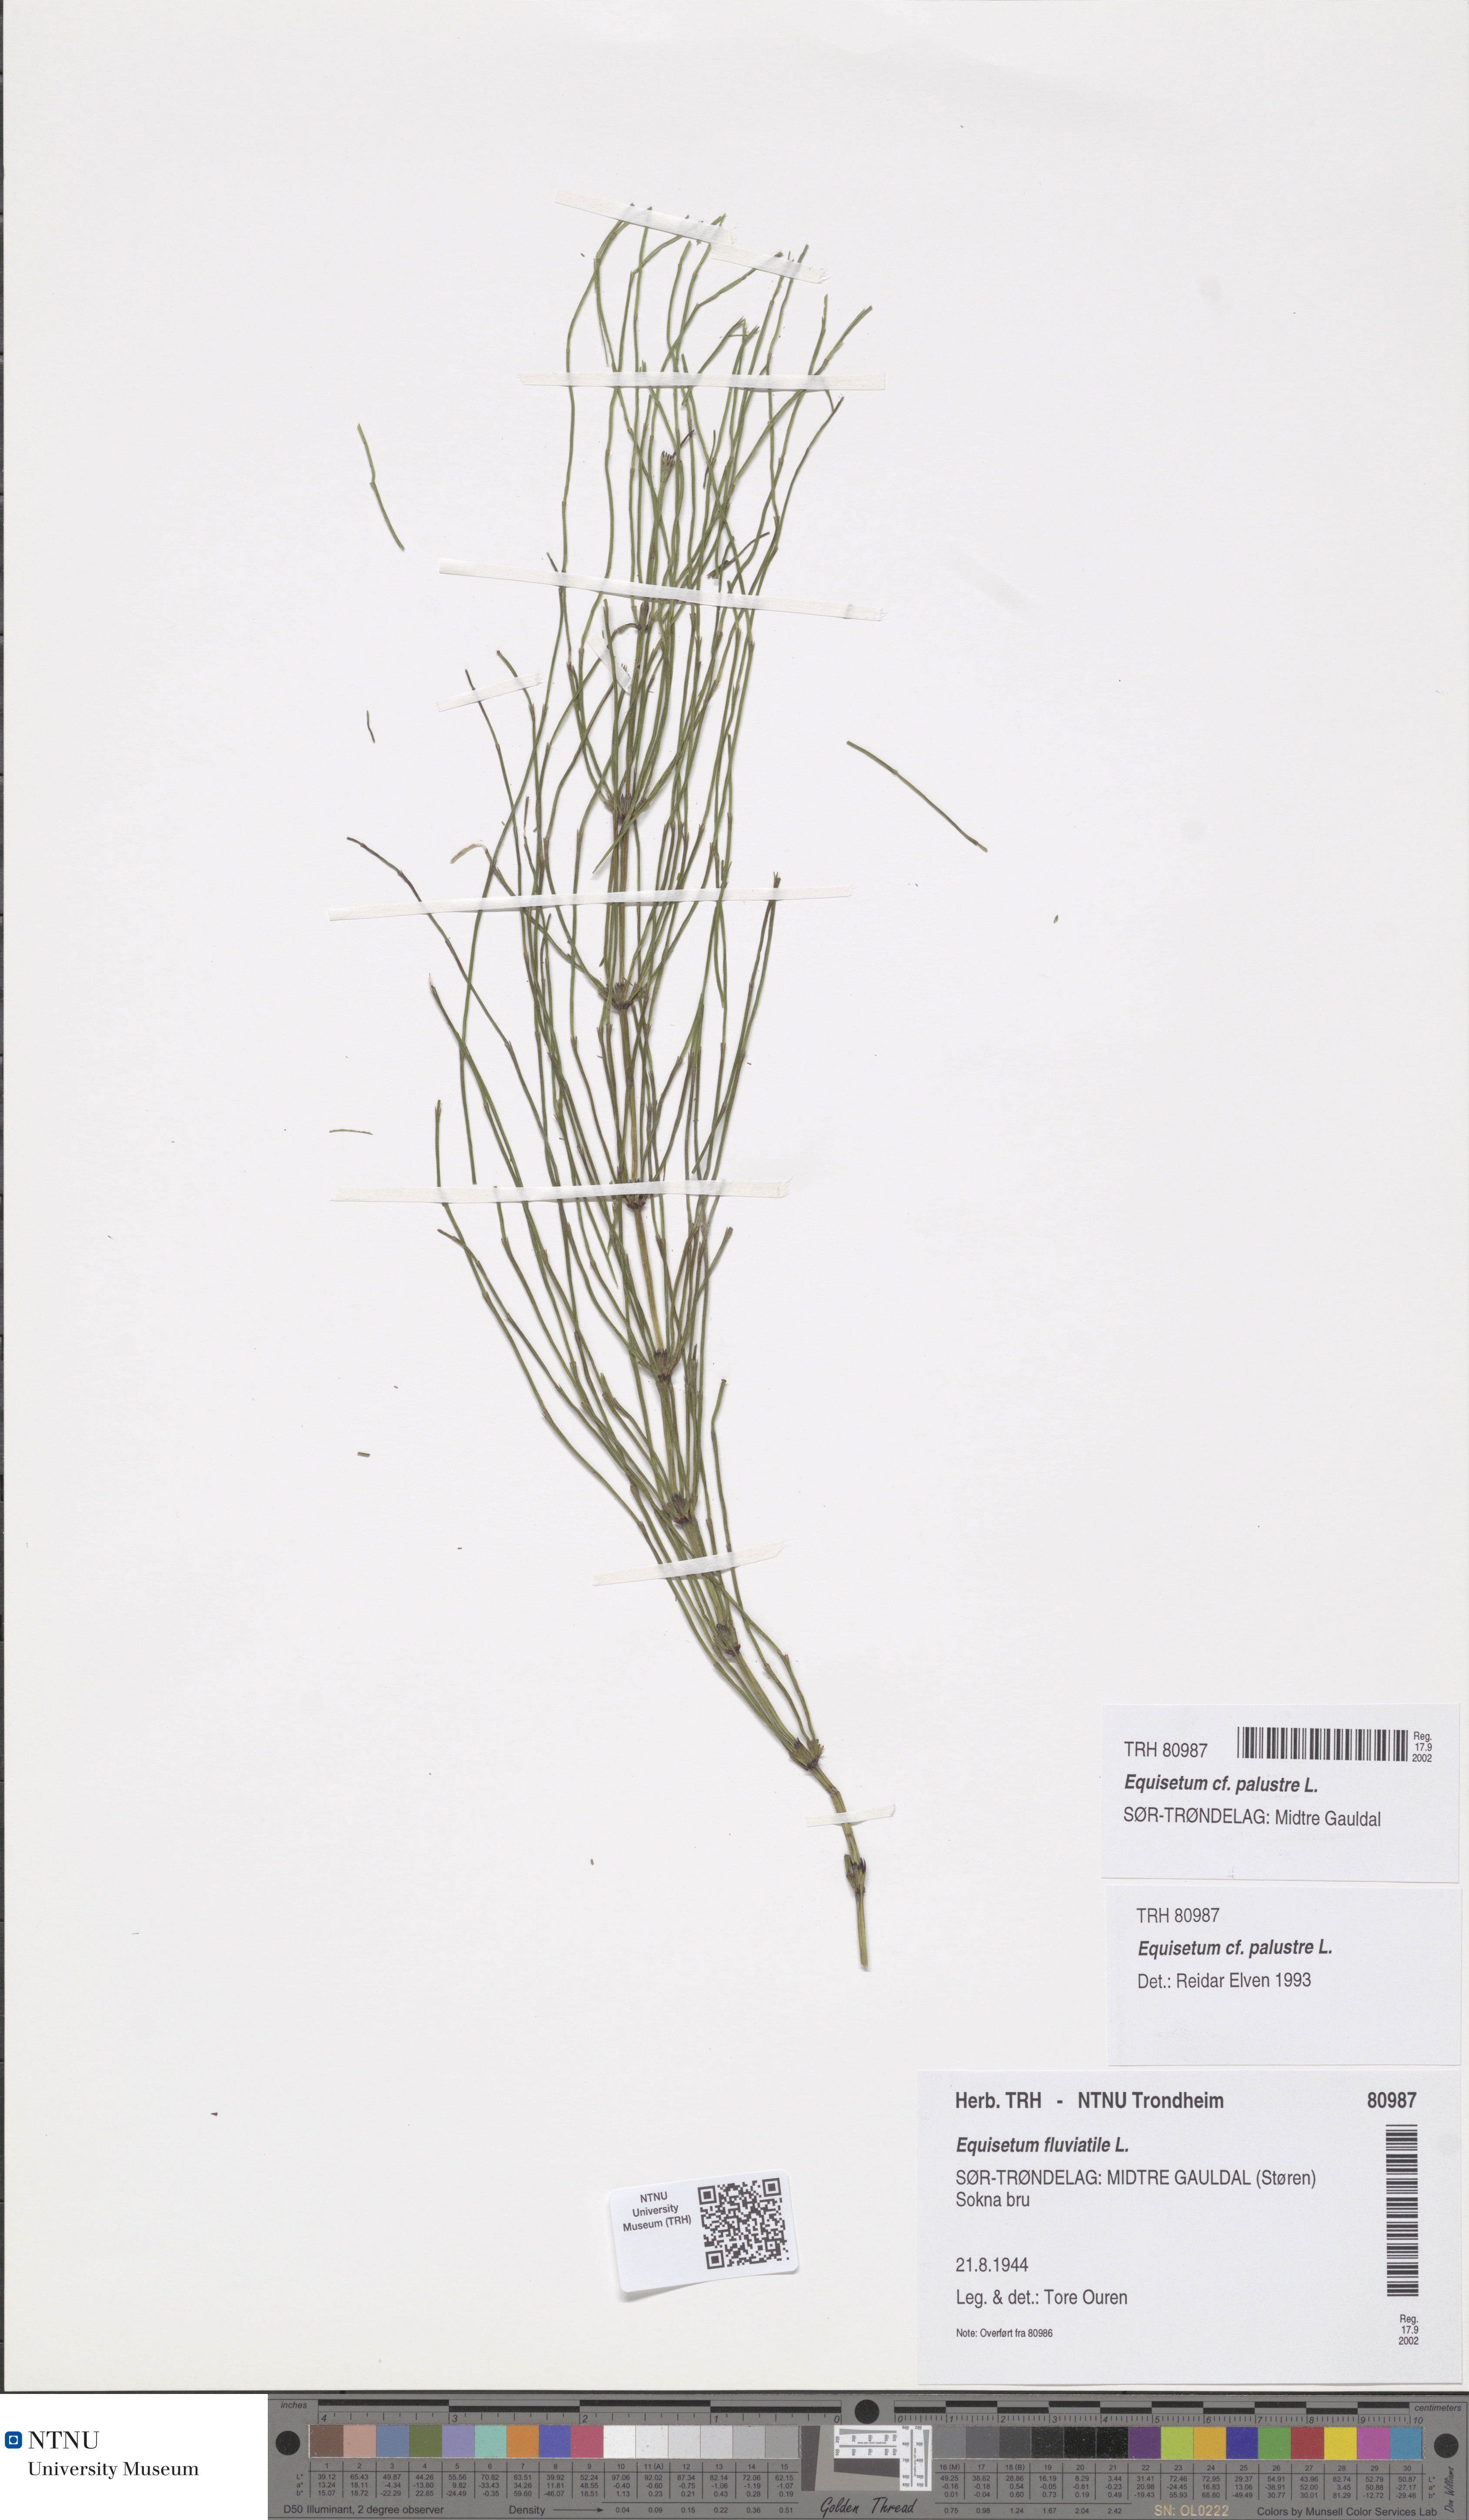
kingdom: Plantae
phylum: Tracheophyta
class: Polypodiopsida
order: Equisetales
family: Equisetaceae
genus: Equisetum
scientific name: Equisetum palustre
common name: Marsh horsetail
